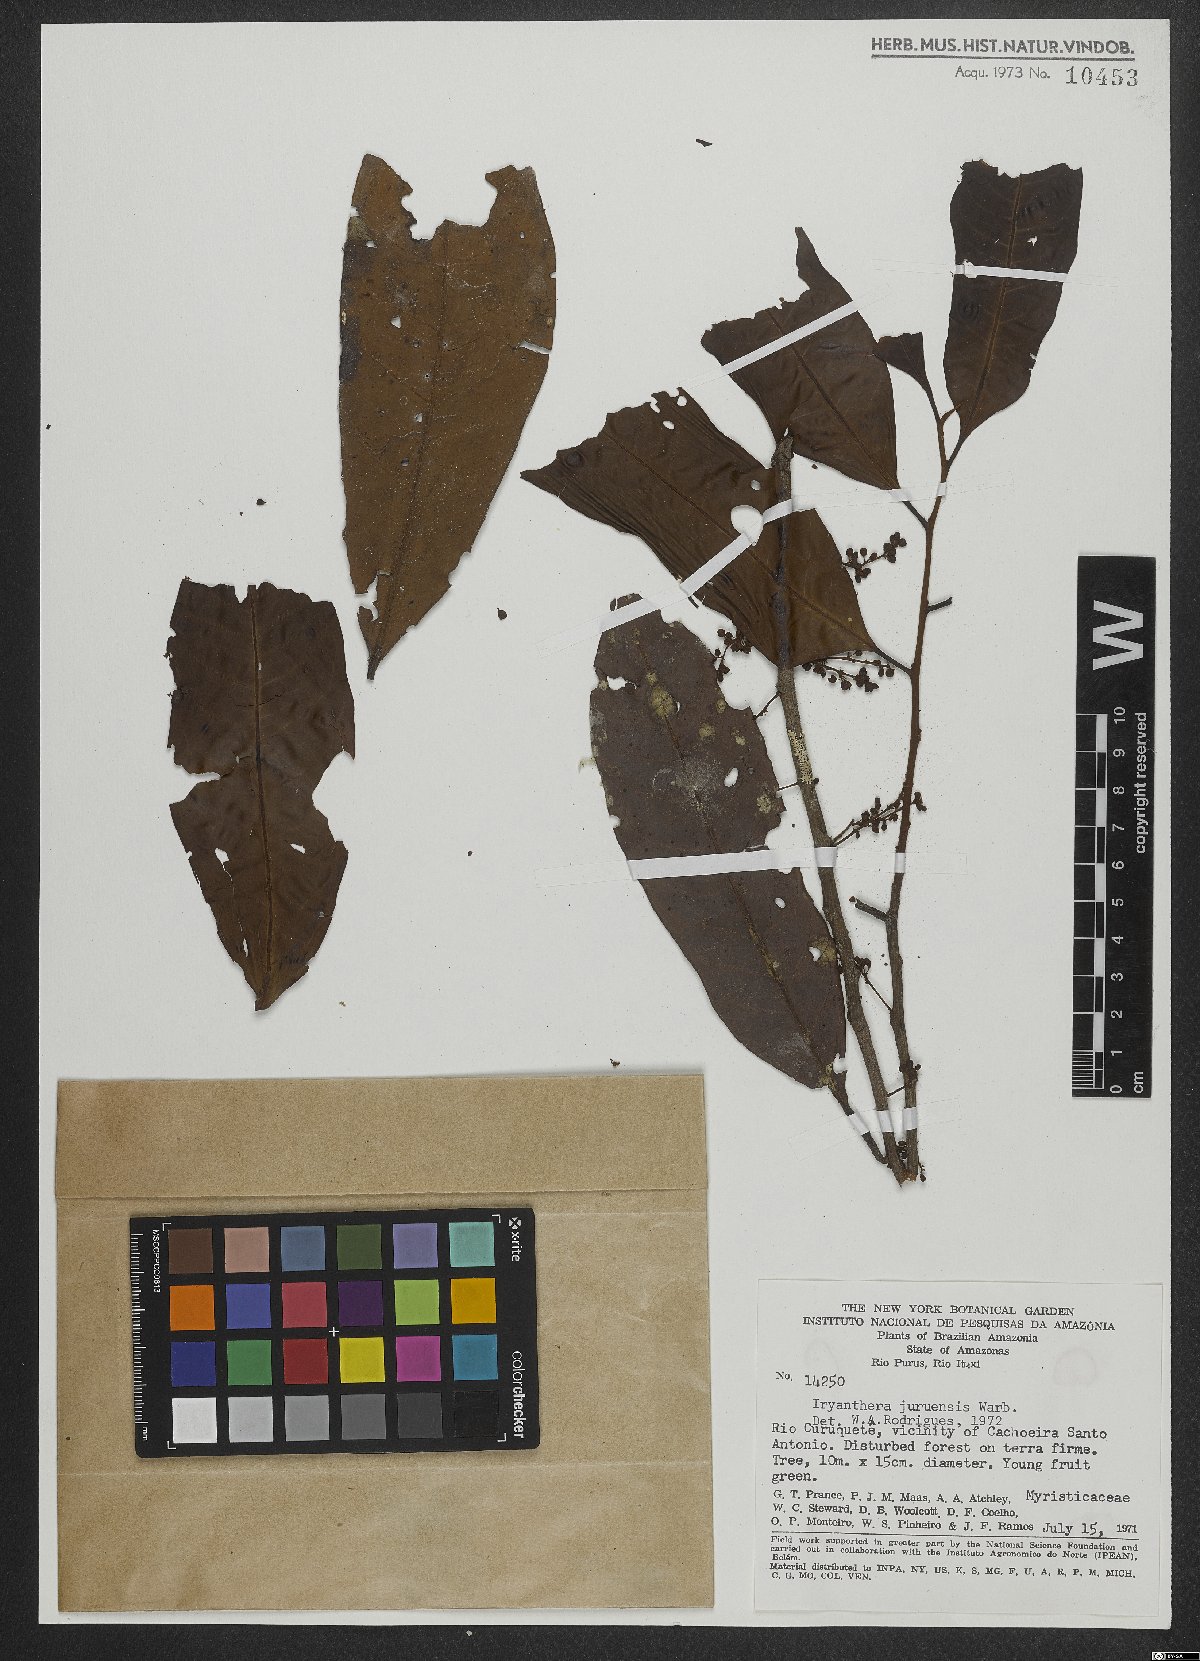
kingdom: Plantae
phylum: Tracheophyta
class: Magnoliopsida
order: Magnoliales
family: Myristicaceae
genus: Iryanthera
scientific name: Iryanthera juruensis
